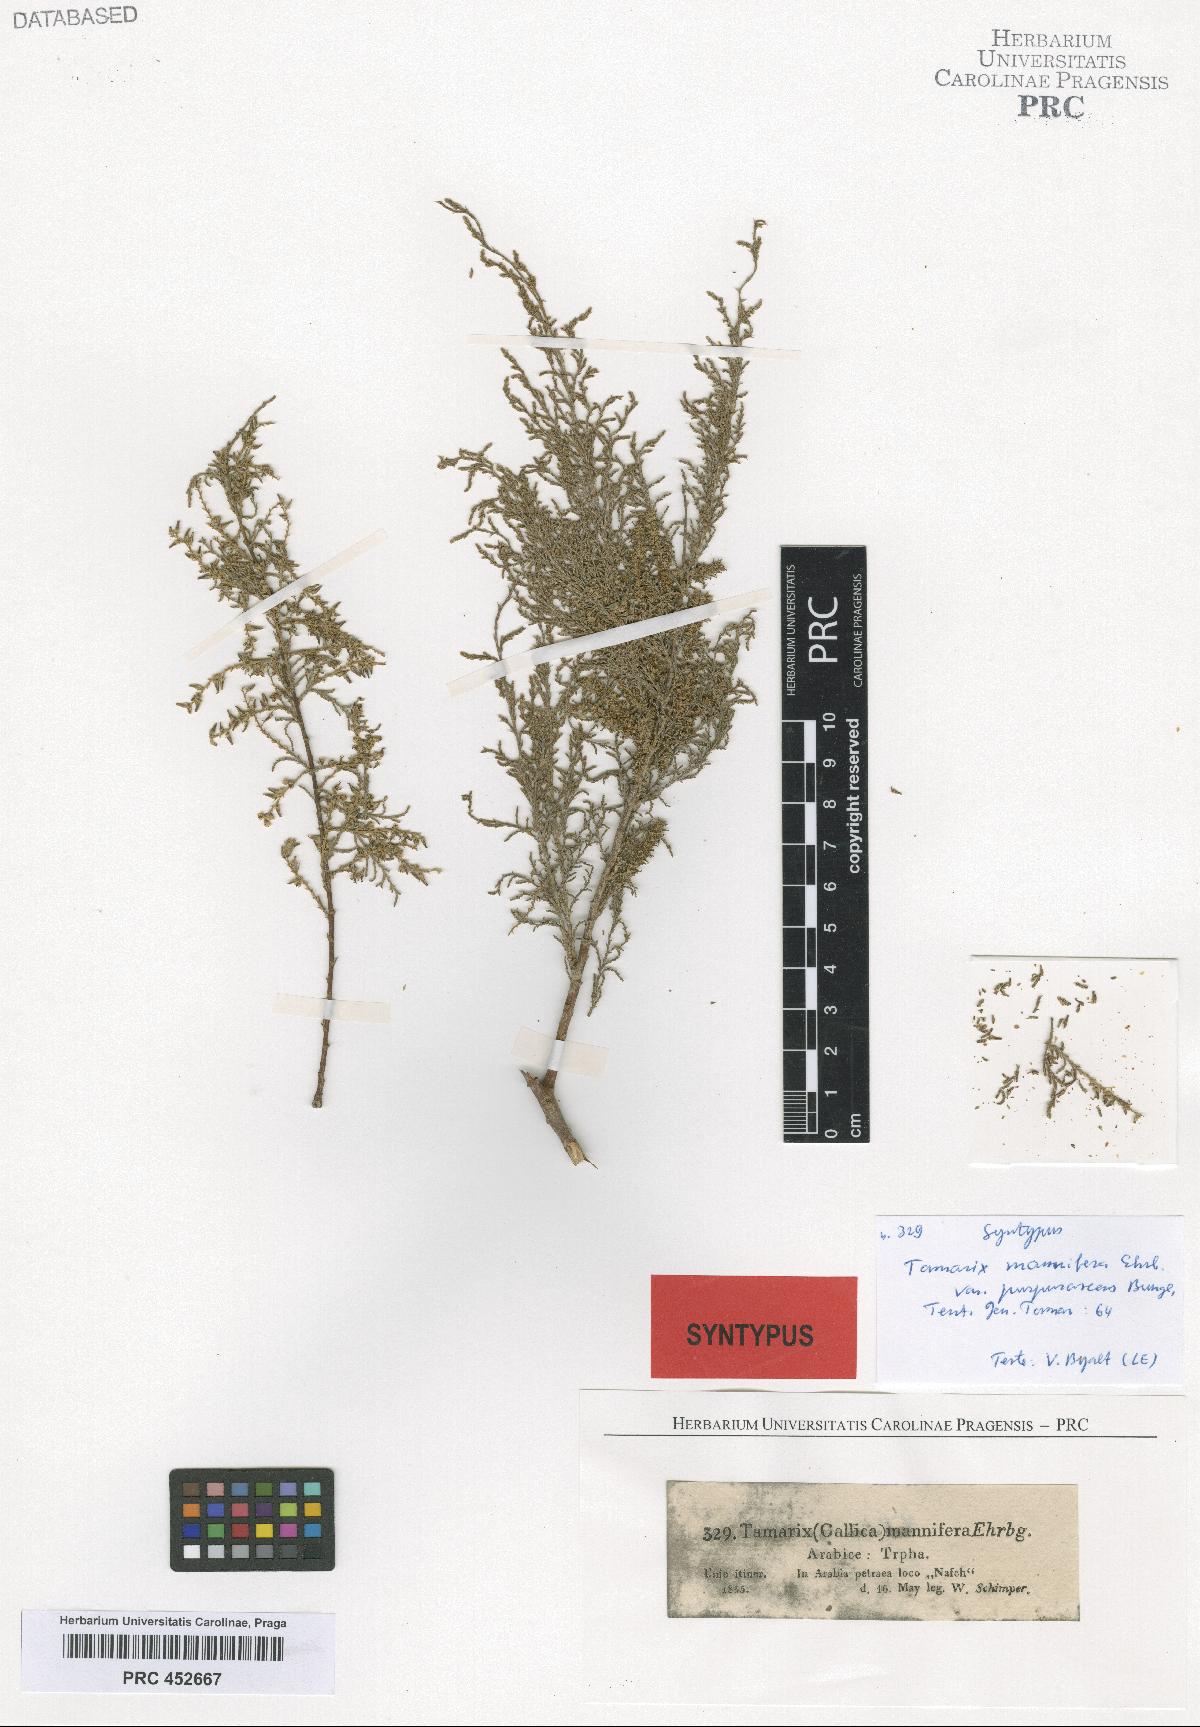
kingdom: Plantae
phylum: Tracheophyta
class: Magnoliopsida
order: Caryophyllales
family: Tamaricaceae
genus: Tamarix
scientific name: Tamarix senegalensis
